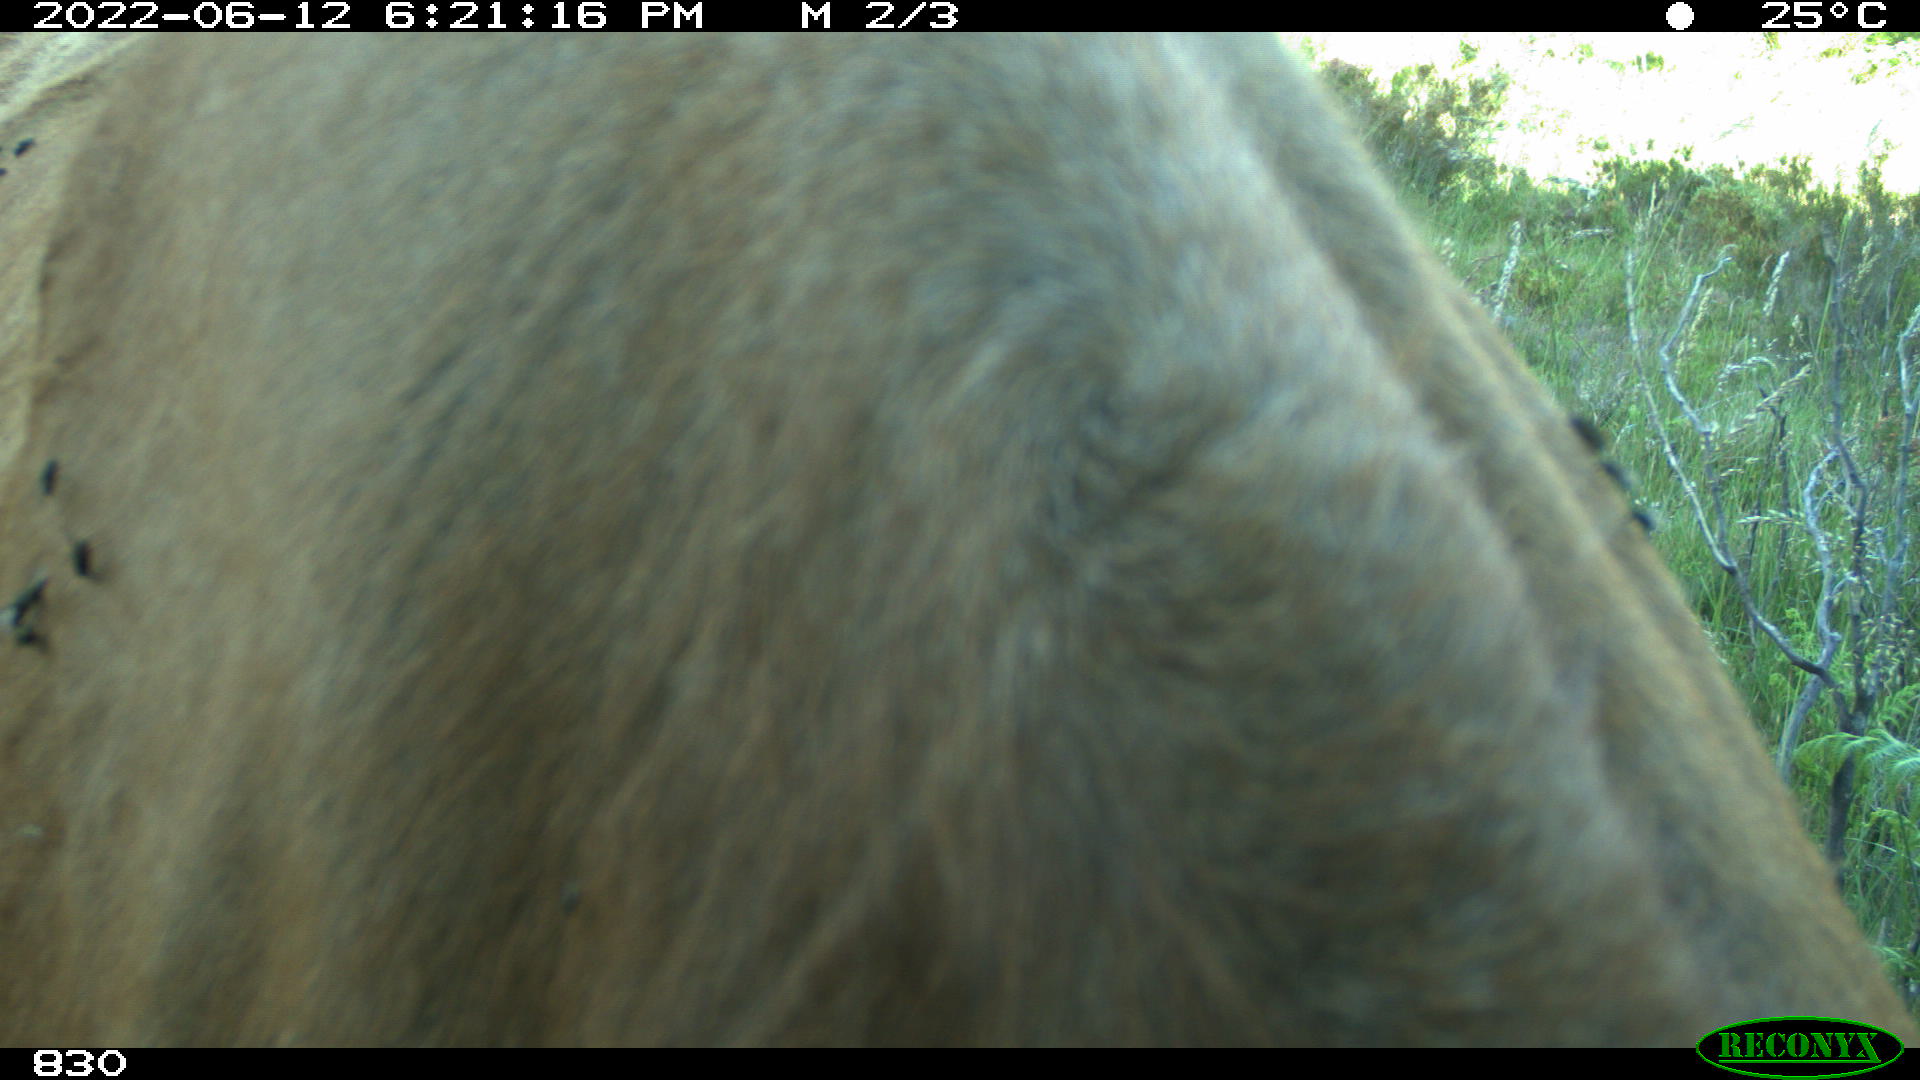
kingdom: Animalia
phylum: Chordata
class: Mammalia
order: Artiodactyla
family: Bovidae
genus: Bos
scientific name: Bos taurus
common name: Domesticated cattle
